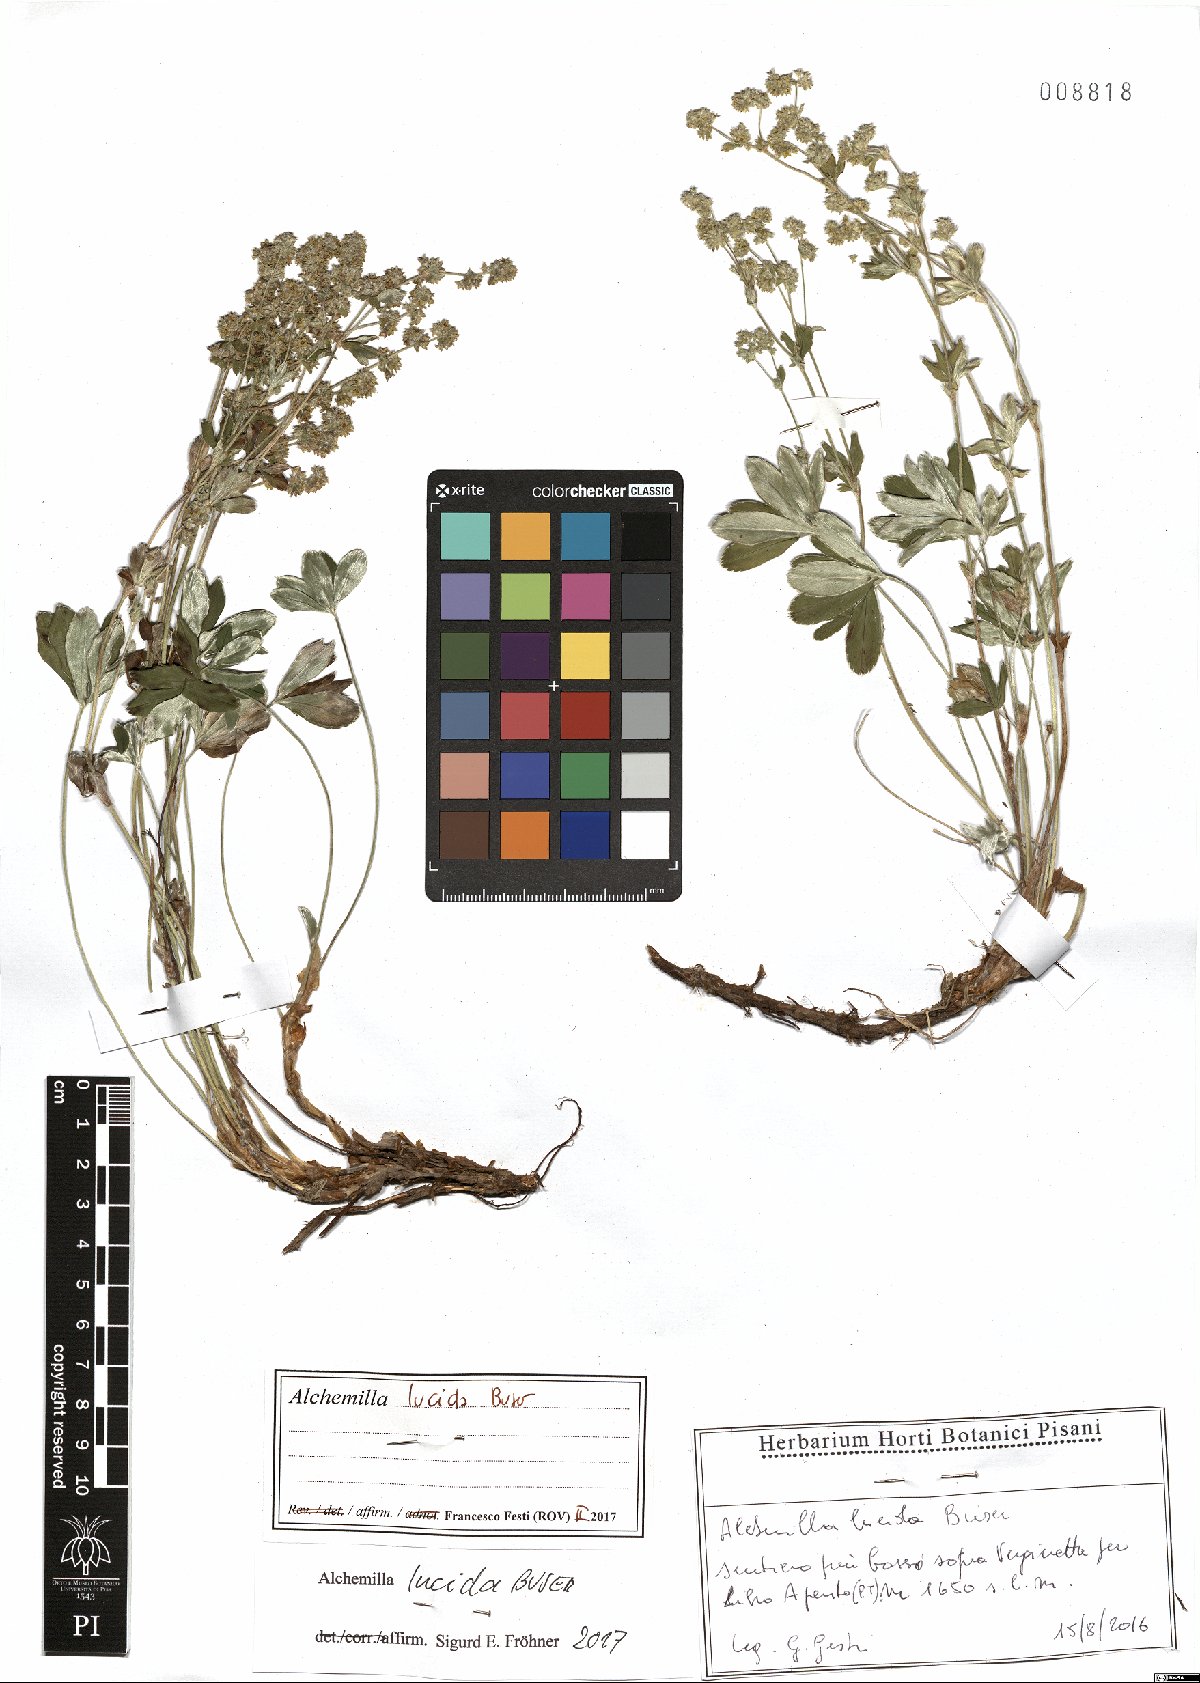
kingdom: Plantae
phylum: Tracheophyta
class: Magnoliopsida
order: Rosales
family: Rosaceae
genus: Alchemilla
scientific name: Alchemilla lucida
